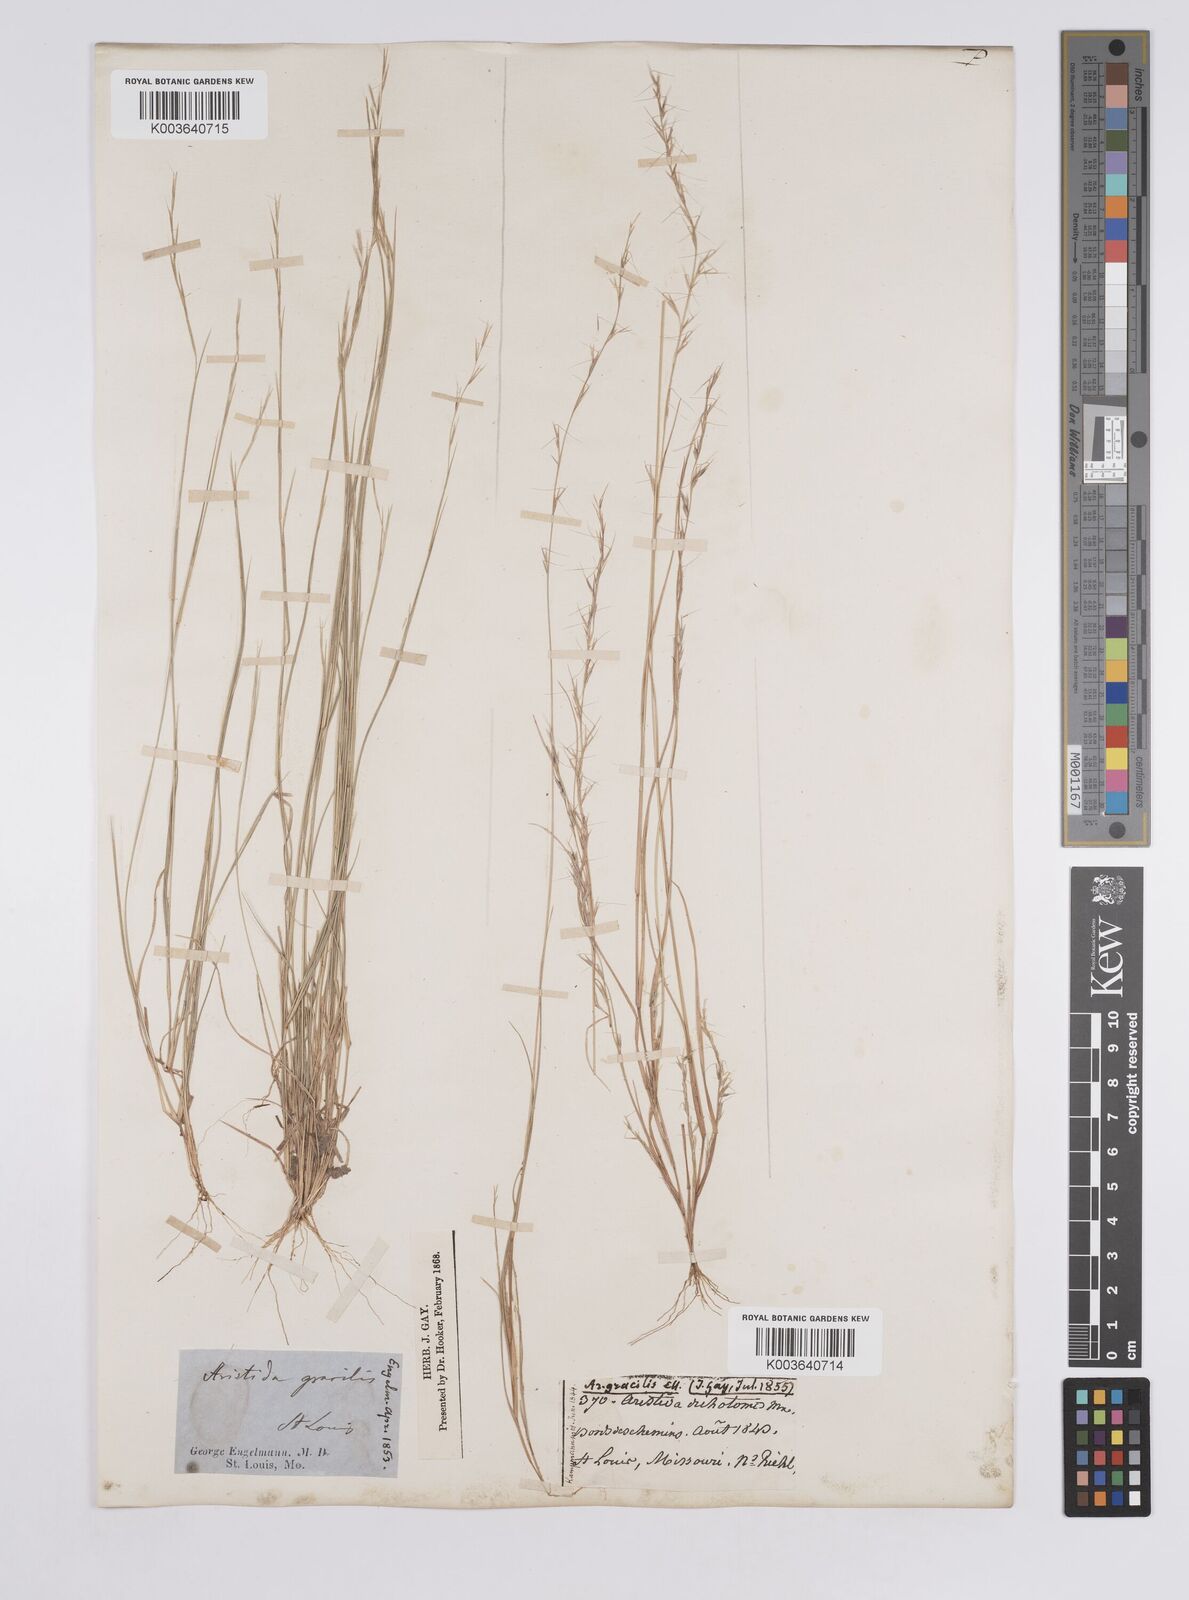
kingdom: Plantae
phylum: Tracheophyta
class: Liliopsida
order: Poales
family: Poaceae
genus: Aristida
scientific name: Aristida longespica
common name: Long-spiked triple-awned grass
